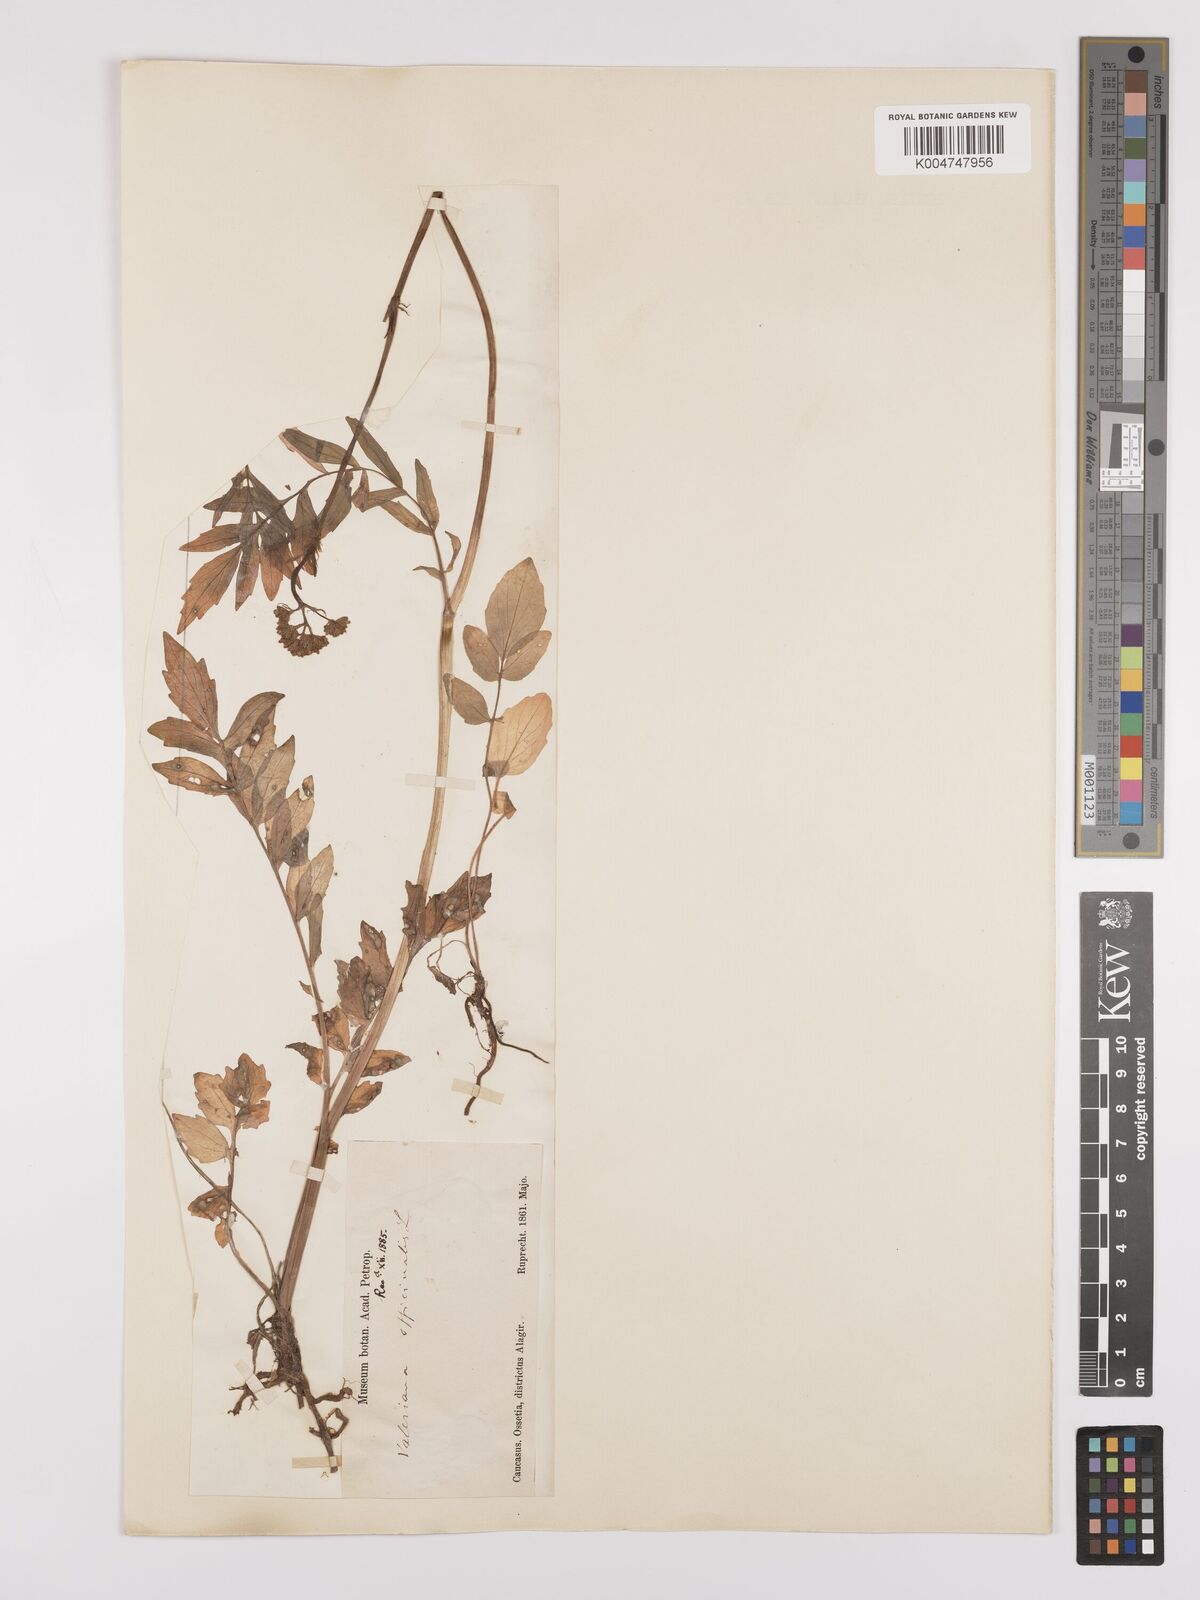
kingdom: Plantae
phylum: Tracheophyta
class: Magnoliopsida
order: Dipsacales
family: Caprifoliaceae
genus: Valeriana
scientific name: Valeriana officinalis
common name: Common valerian
